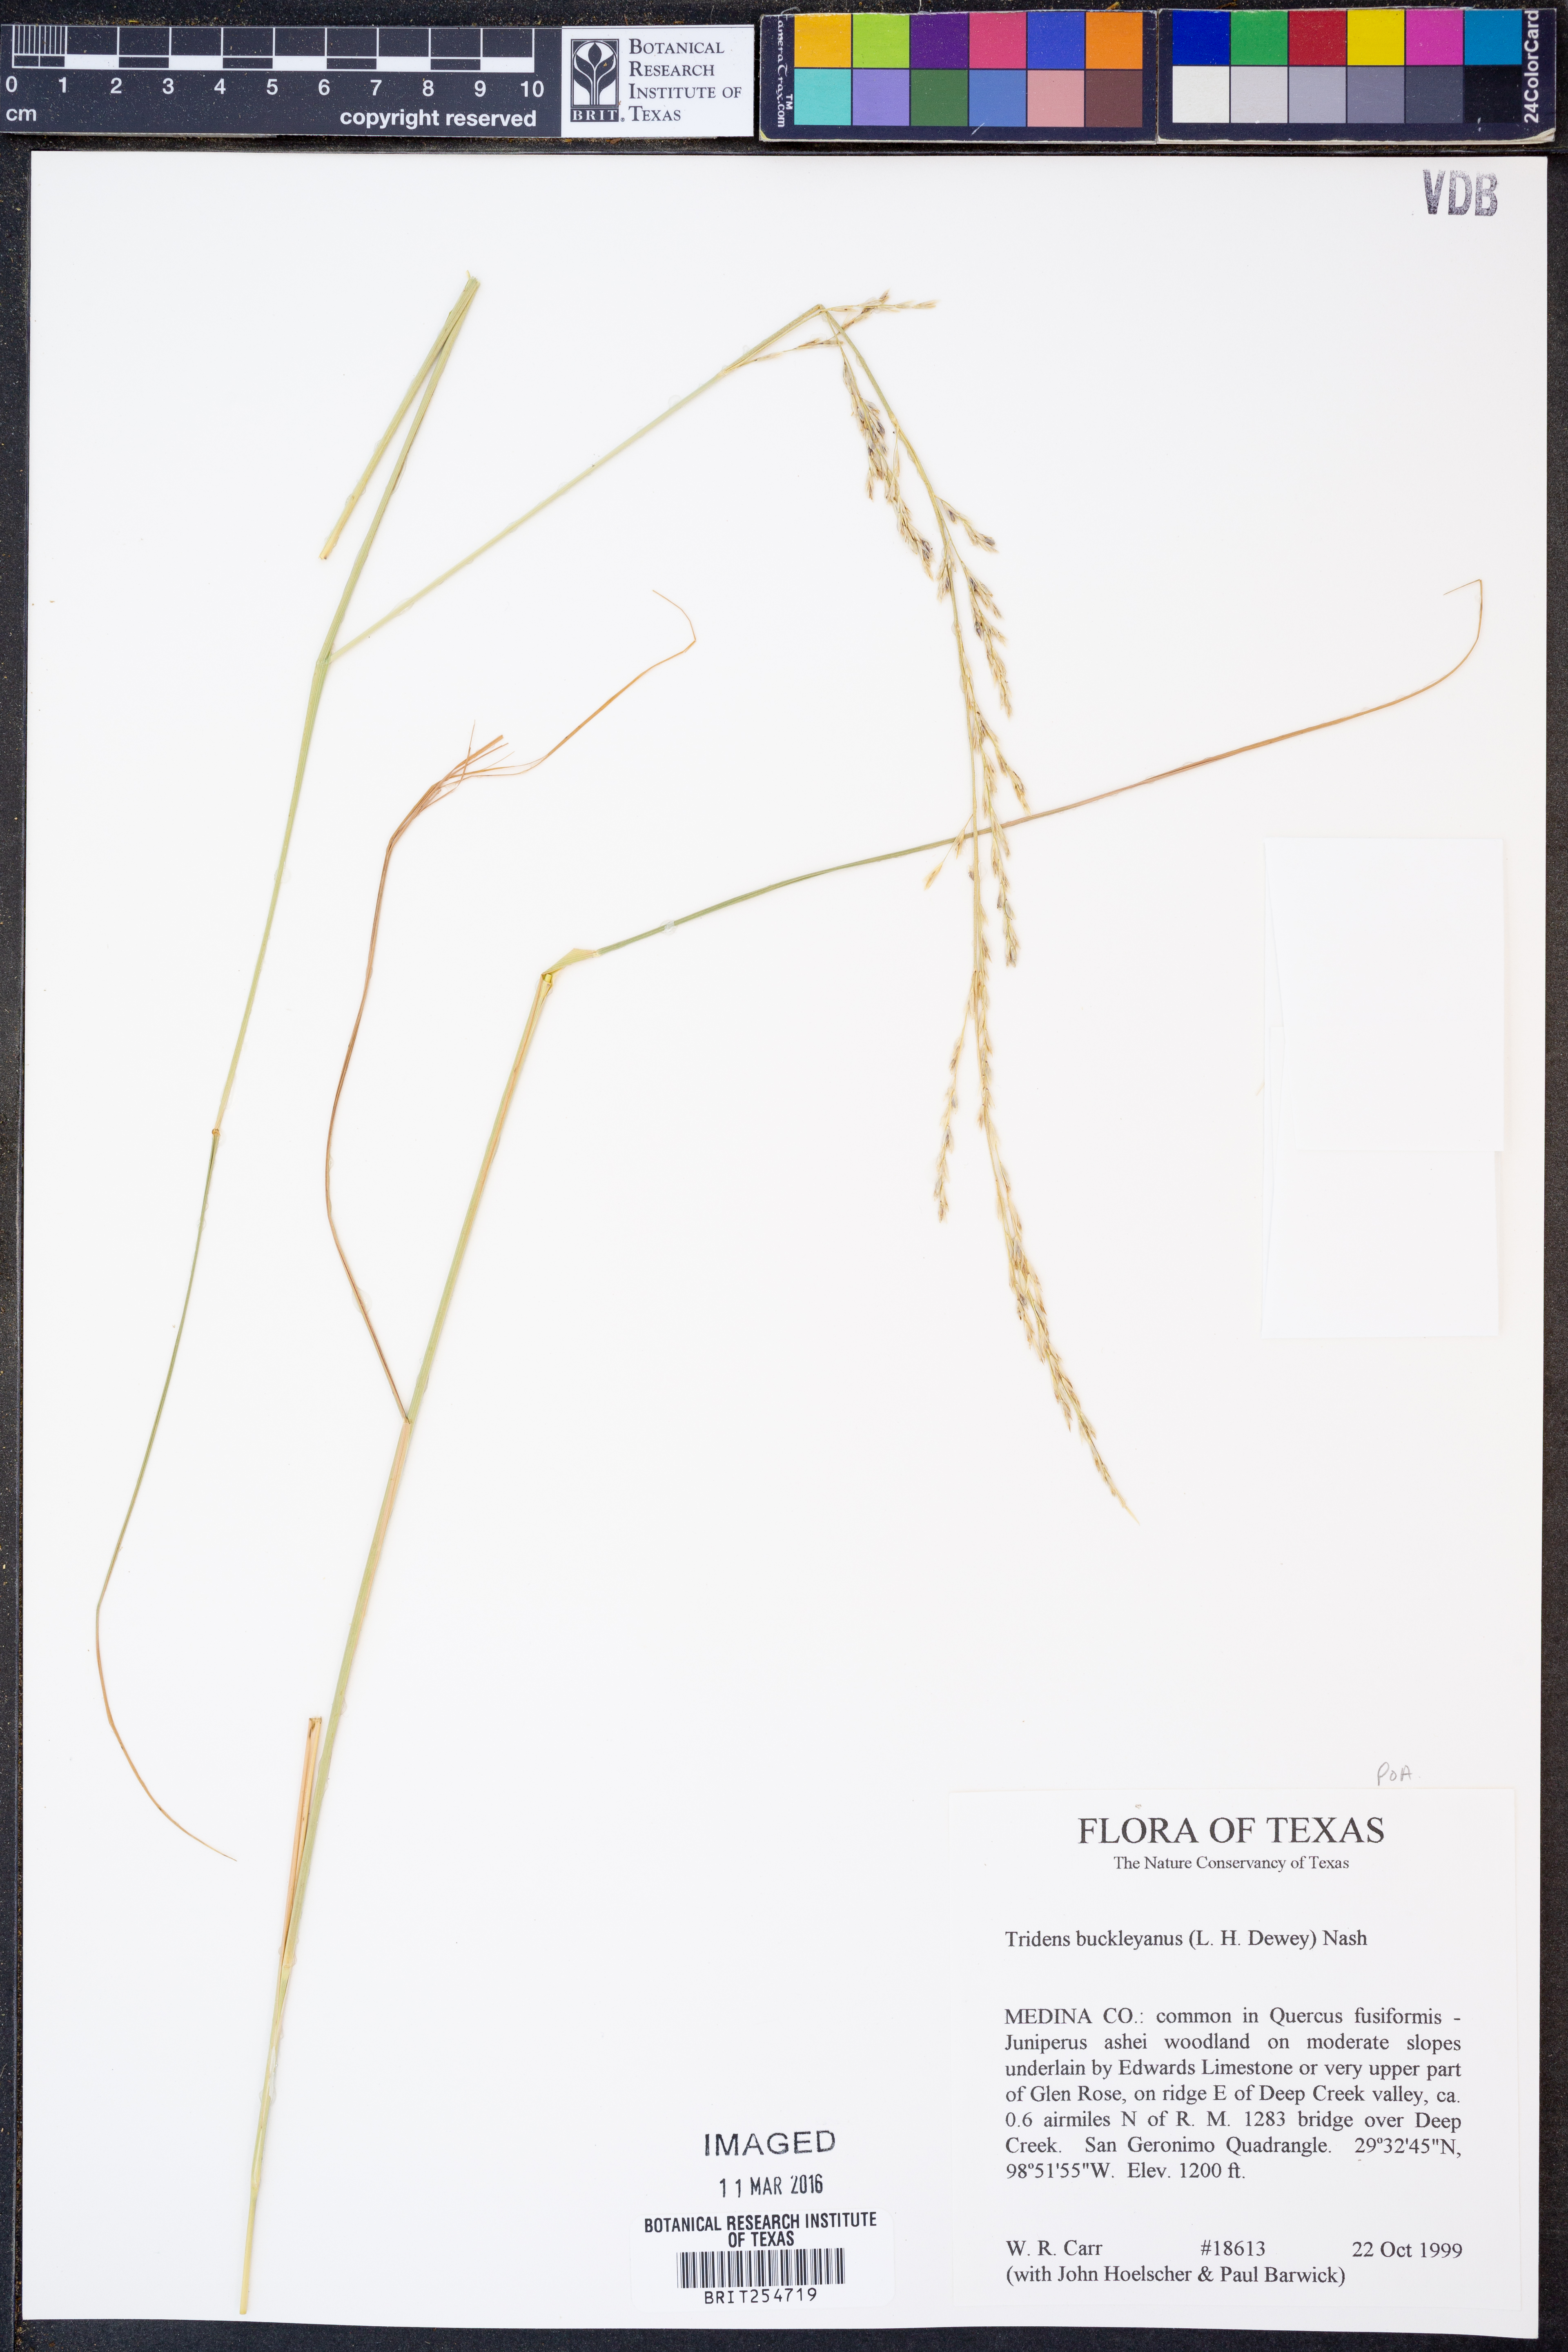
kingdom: Plantae
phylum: Tracheophyta
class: Liliopsida
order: Poales
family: Poaceae
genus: Tridentopsis
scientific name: Tridentopsis buckleyana
